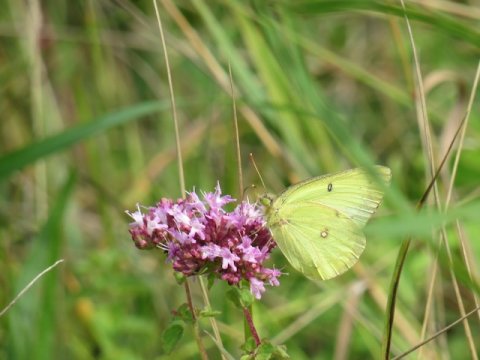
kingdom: Animalia
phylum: Arthropoda
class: Insecta
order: Lepidoptera
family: Pieridae
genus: Colias
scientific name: Colias philodice
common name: Clouded Sulphur
